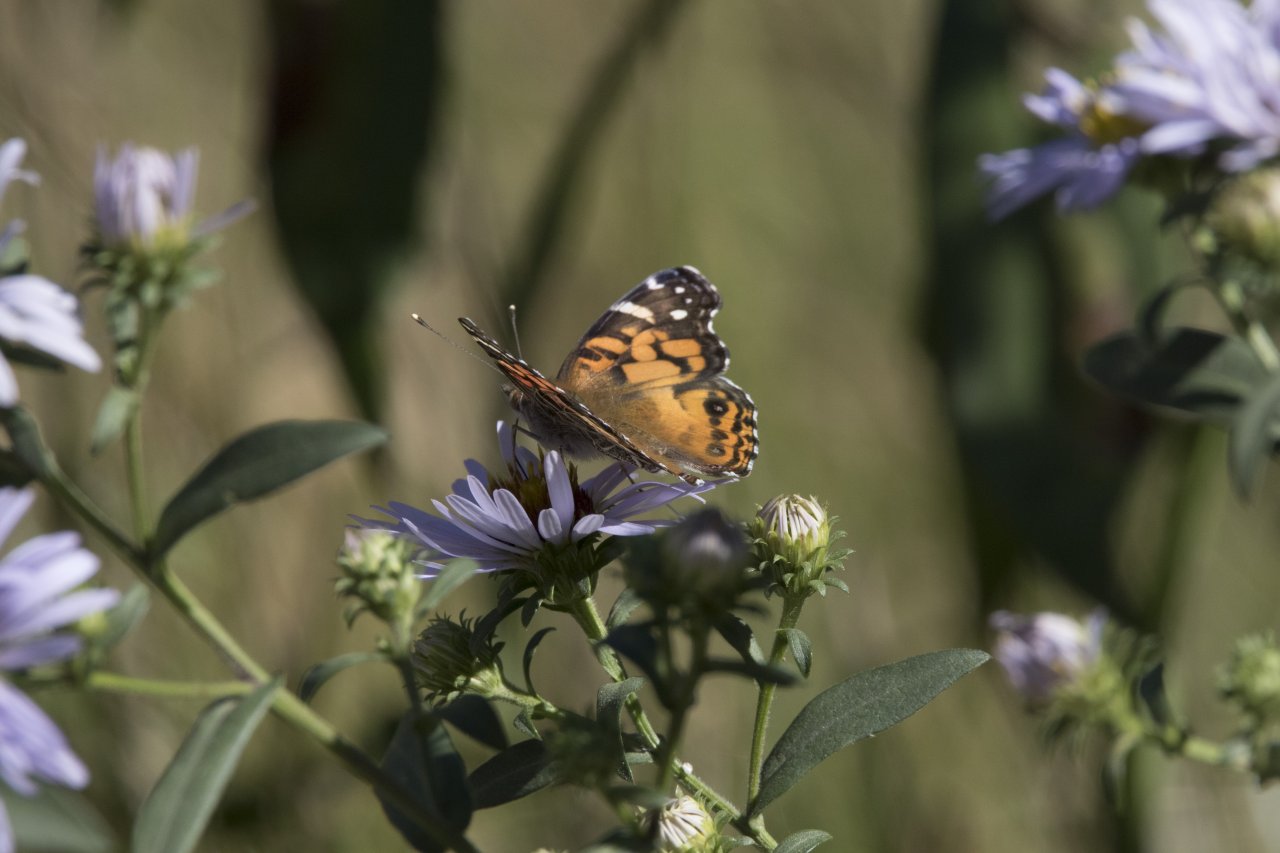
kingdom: Animalia
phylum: Arthropoda
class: Insecta
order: Lepidoptera
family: Nymphalidae
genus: Vanessa
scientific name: Vanessa virginiensis
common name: American Lady
